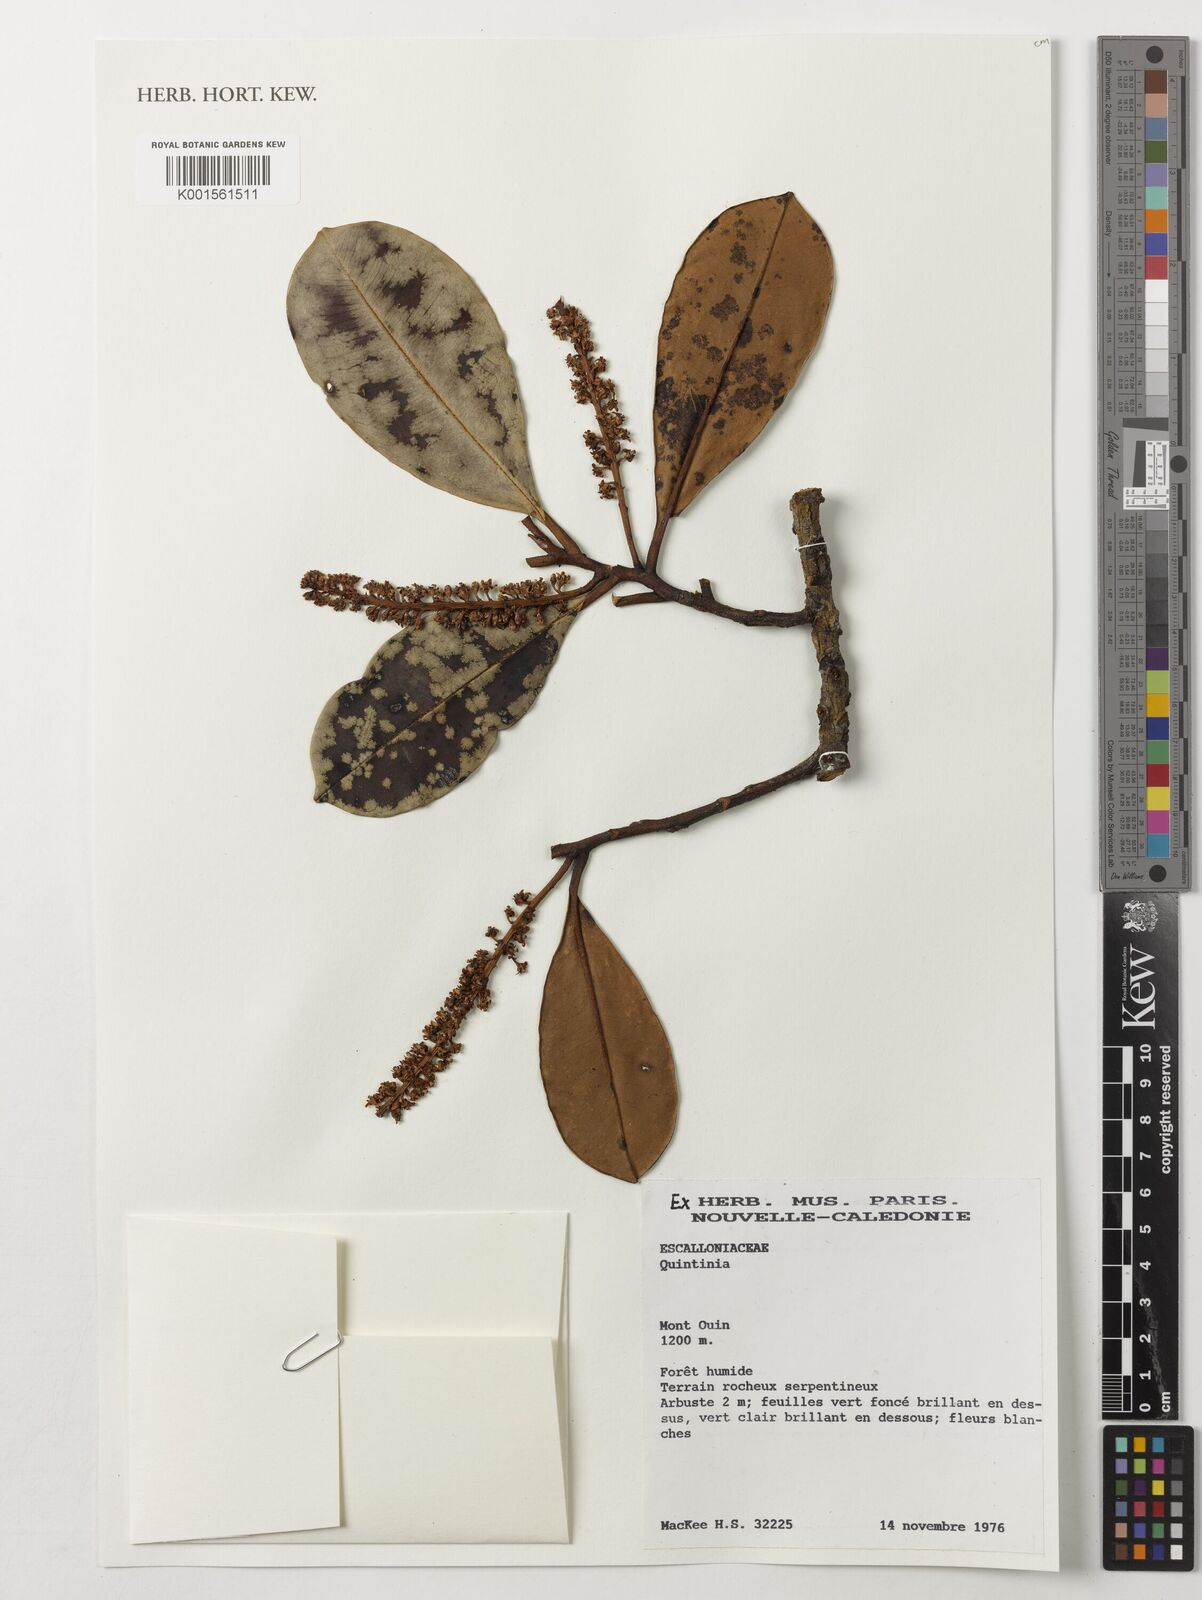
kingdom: Plantae
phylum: Tracheophyta
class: Magnoliopsida
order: Paracryphiales
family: Paracryphiaceae
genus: Quintinia
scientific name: Quintinia
